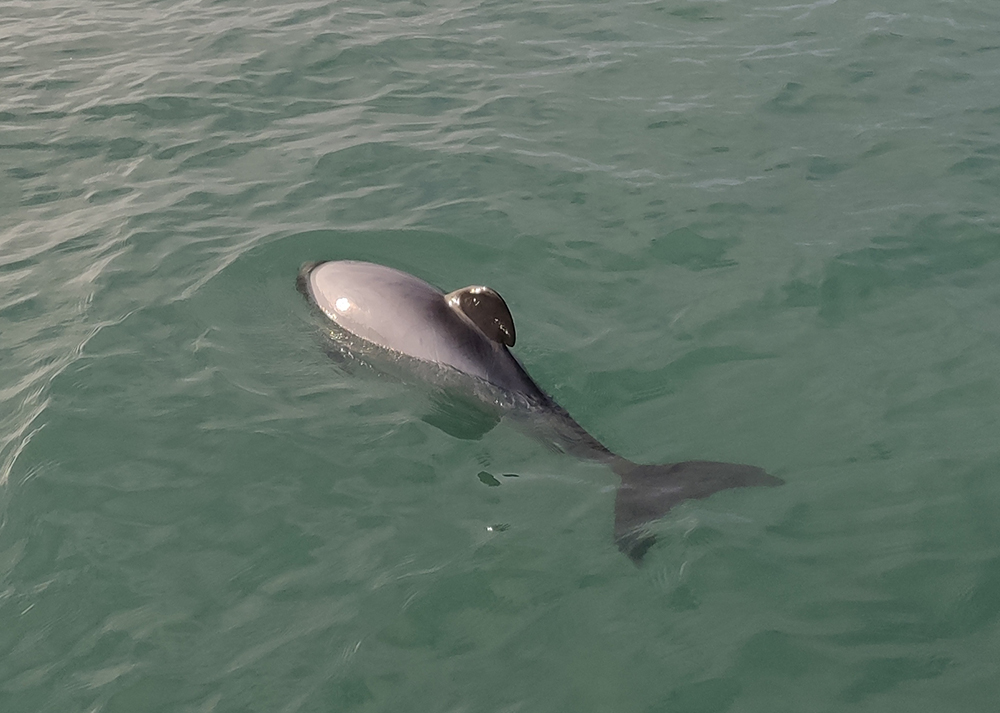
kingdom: Animalia
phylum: Chordata
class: Mammalia
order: Cetacea
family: Delphinidae
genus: Cephalorhynchus
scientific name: Cephalorhynchus hectori
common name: Hector's dolphin
